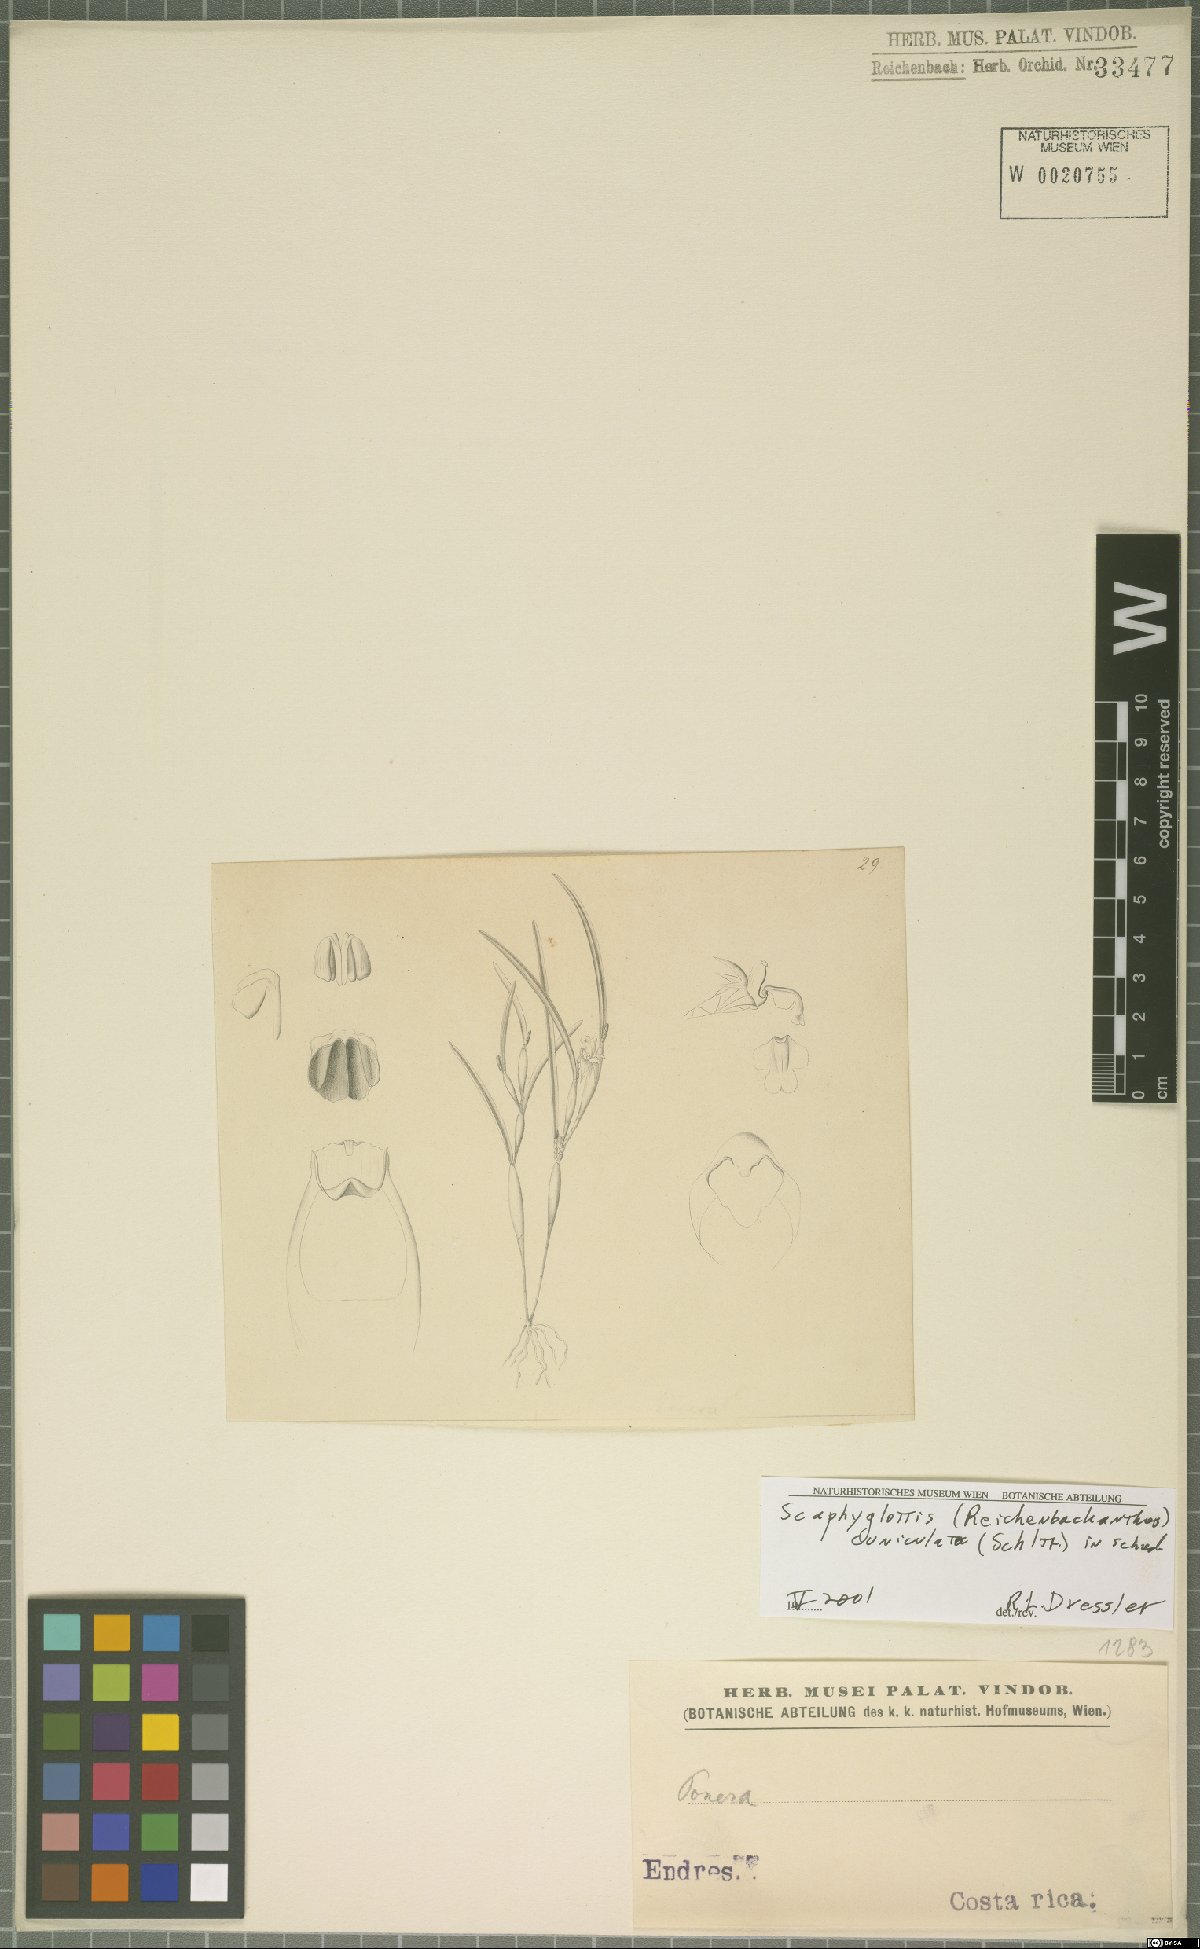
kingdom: Plantae
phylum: Tracheophyta
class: Liliopsida
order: Asparagales
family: Orchidaceae
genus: Scaphyglottis
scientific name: Scaphyglottis cuniculata
